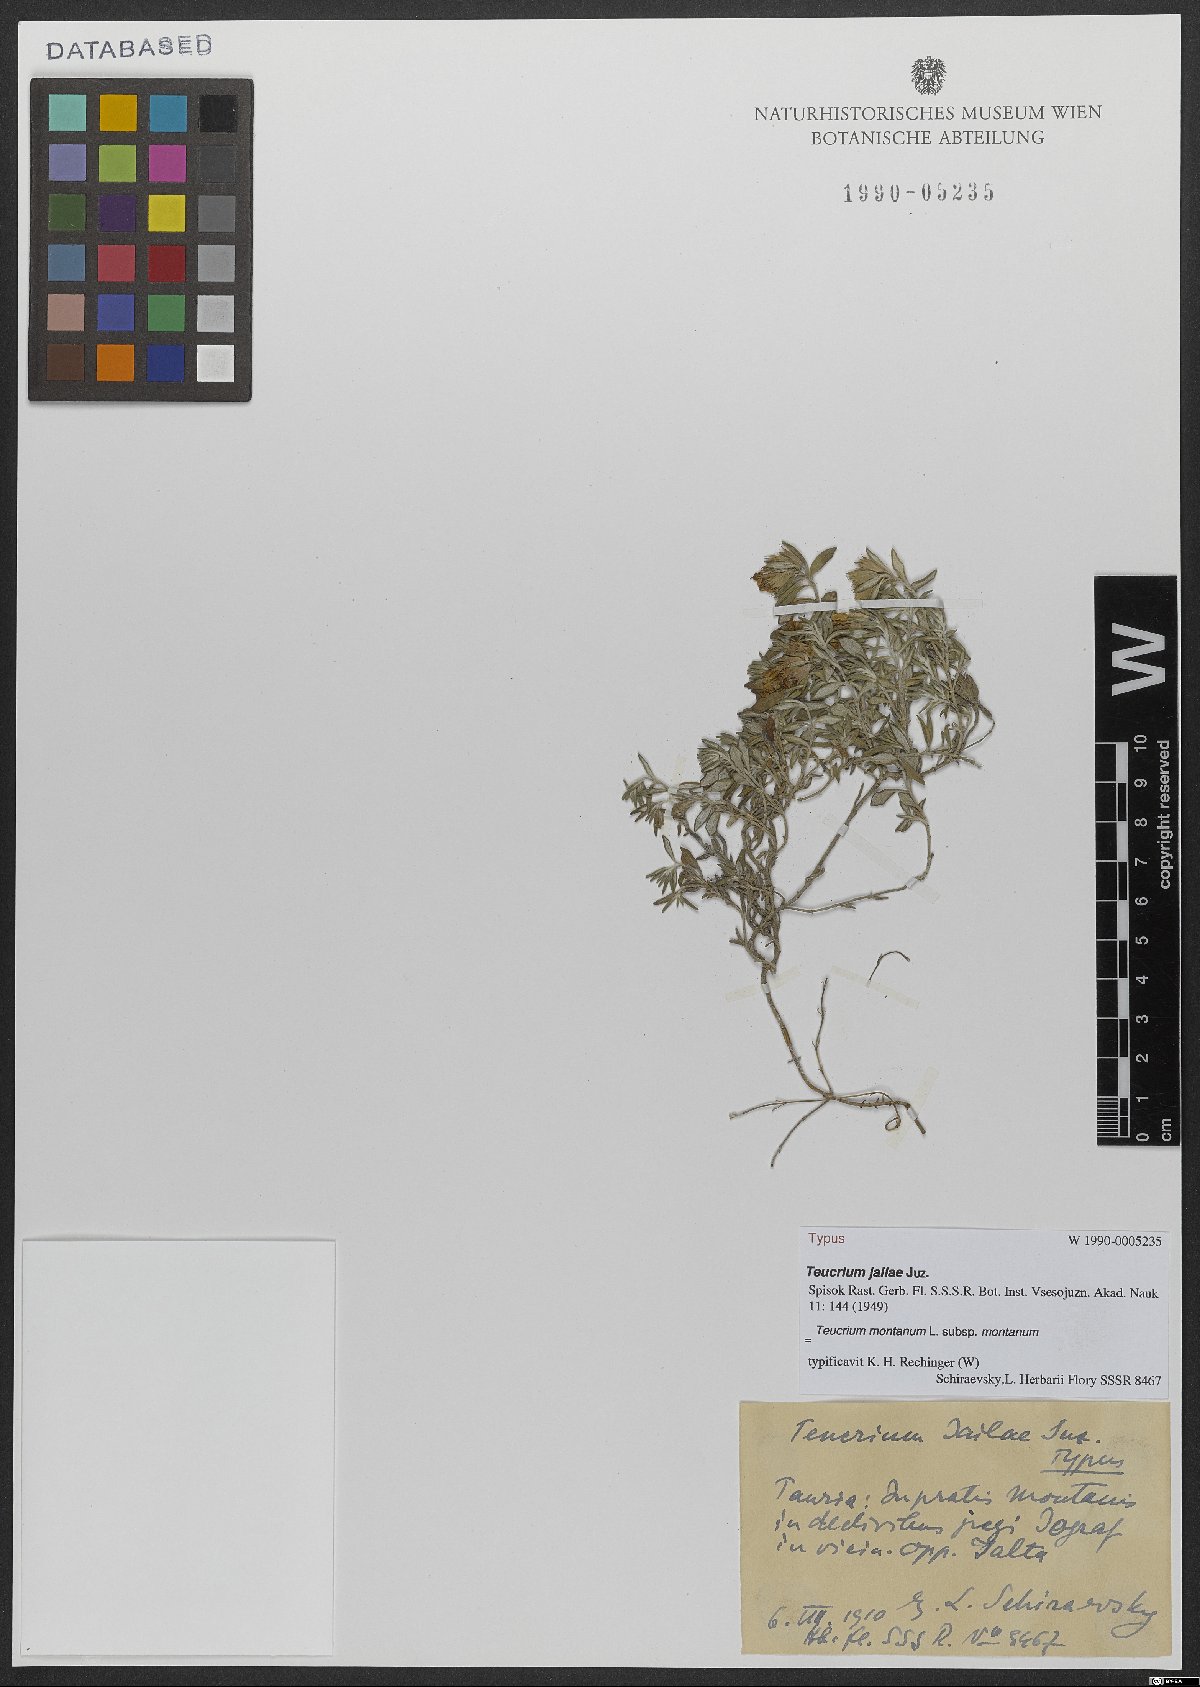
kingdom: Plantae
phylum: Tracheophyta
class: Magnoliopsida
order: Lamiales
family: Lamiaceae
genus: Teucrium
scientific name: Teucrium montanum
